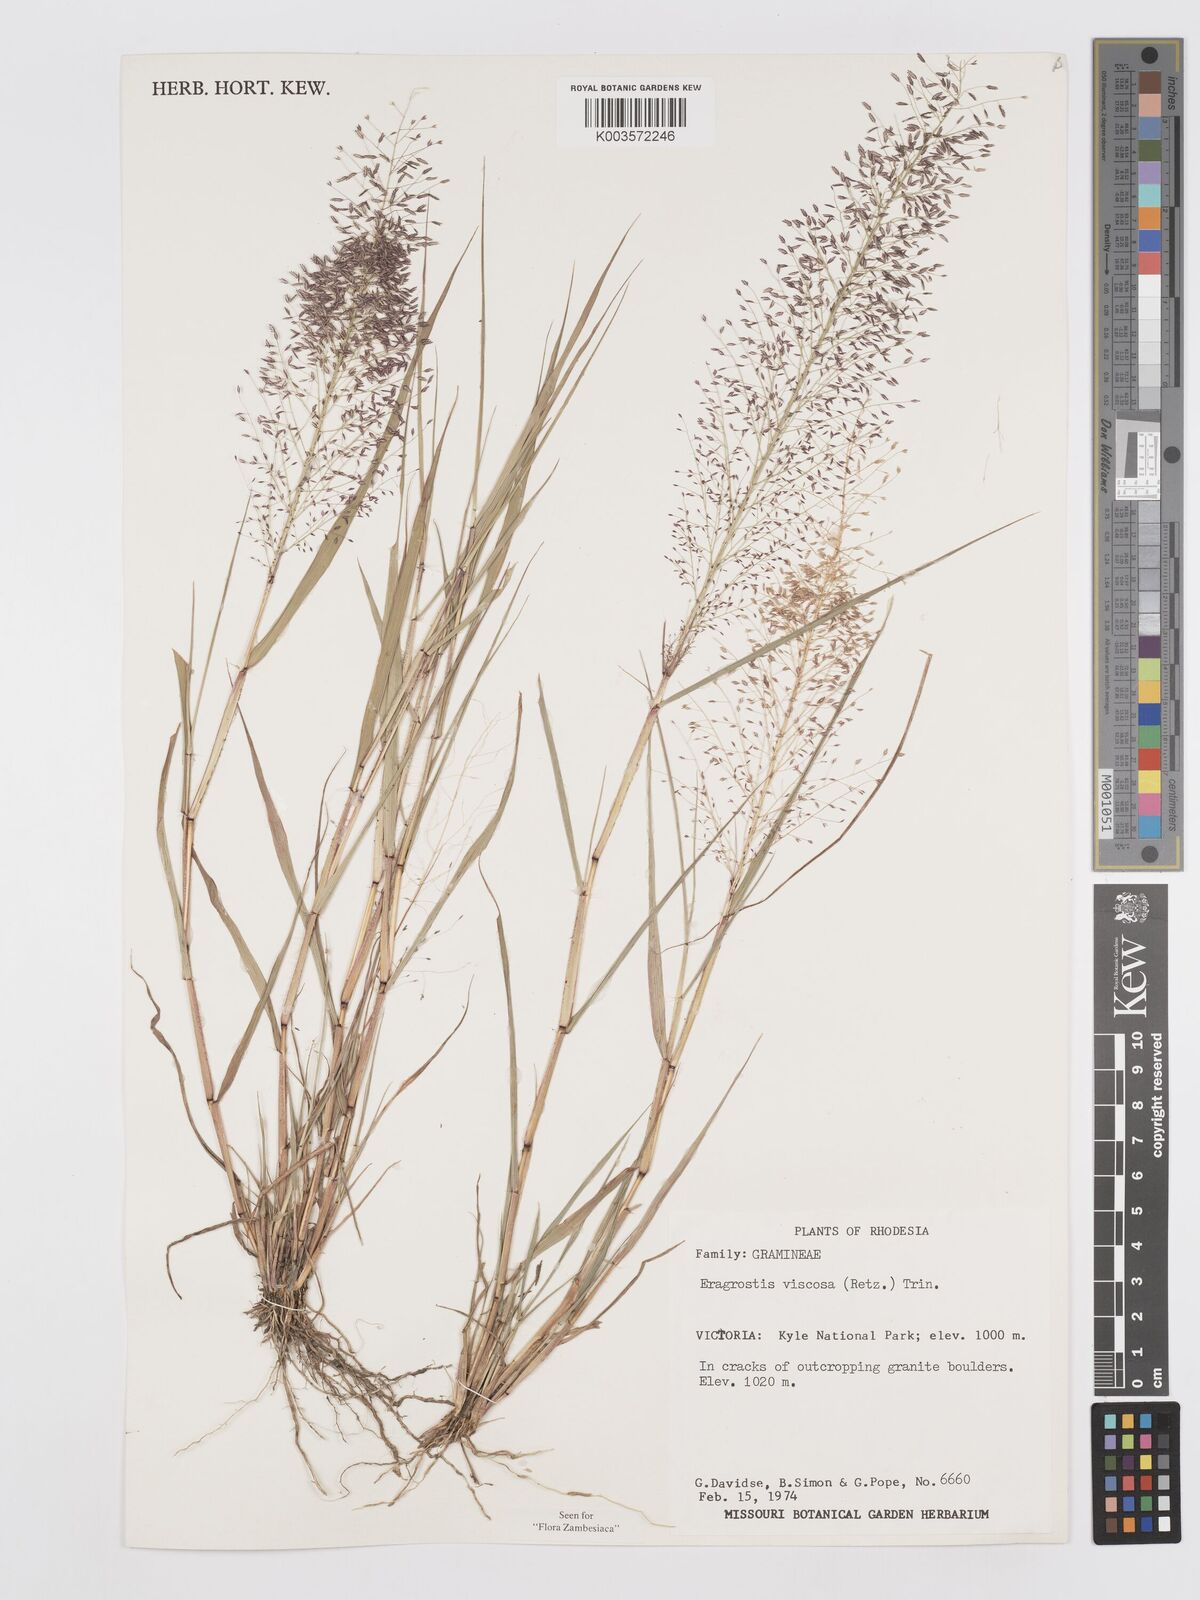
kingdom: Plantae
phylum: Tracheophyta
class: Liliopsida
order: Poales
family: Poaceae
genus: Eragrostis
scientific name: Eragrostis
